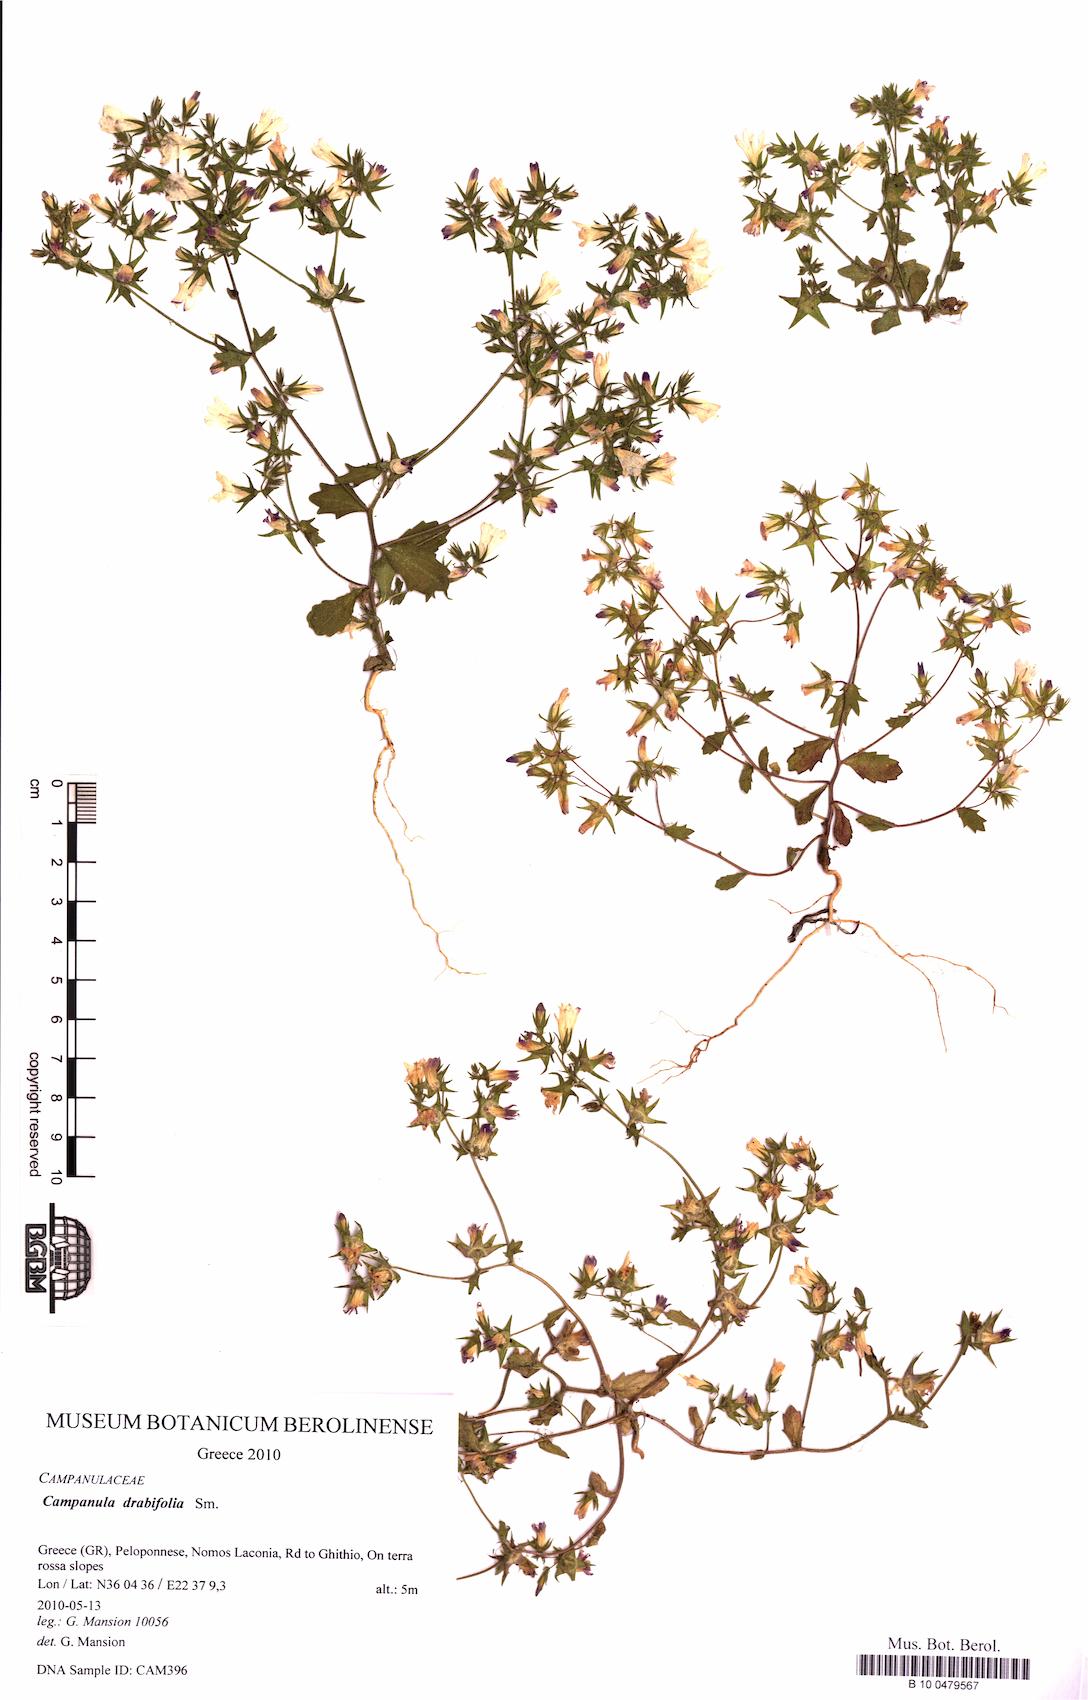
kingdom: Plantae
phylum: Tracheophyta
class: Magnoliopsida
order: Asterales
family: Campanulaceae
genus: Campanula
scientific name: Campanula drabifolia
